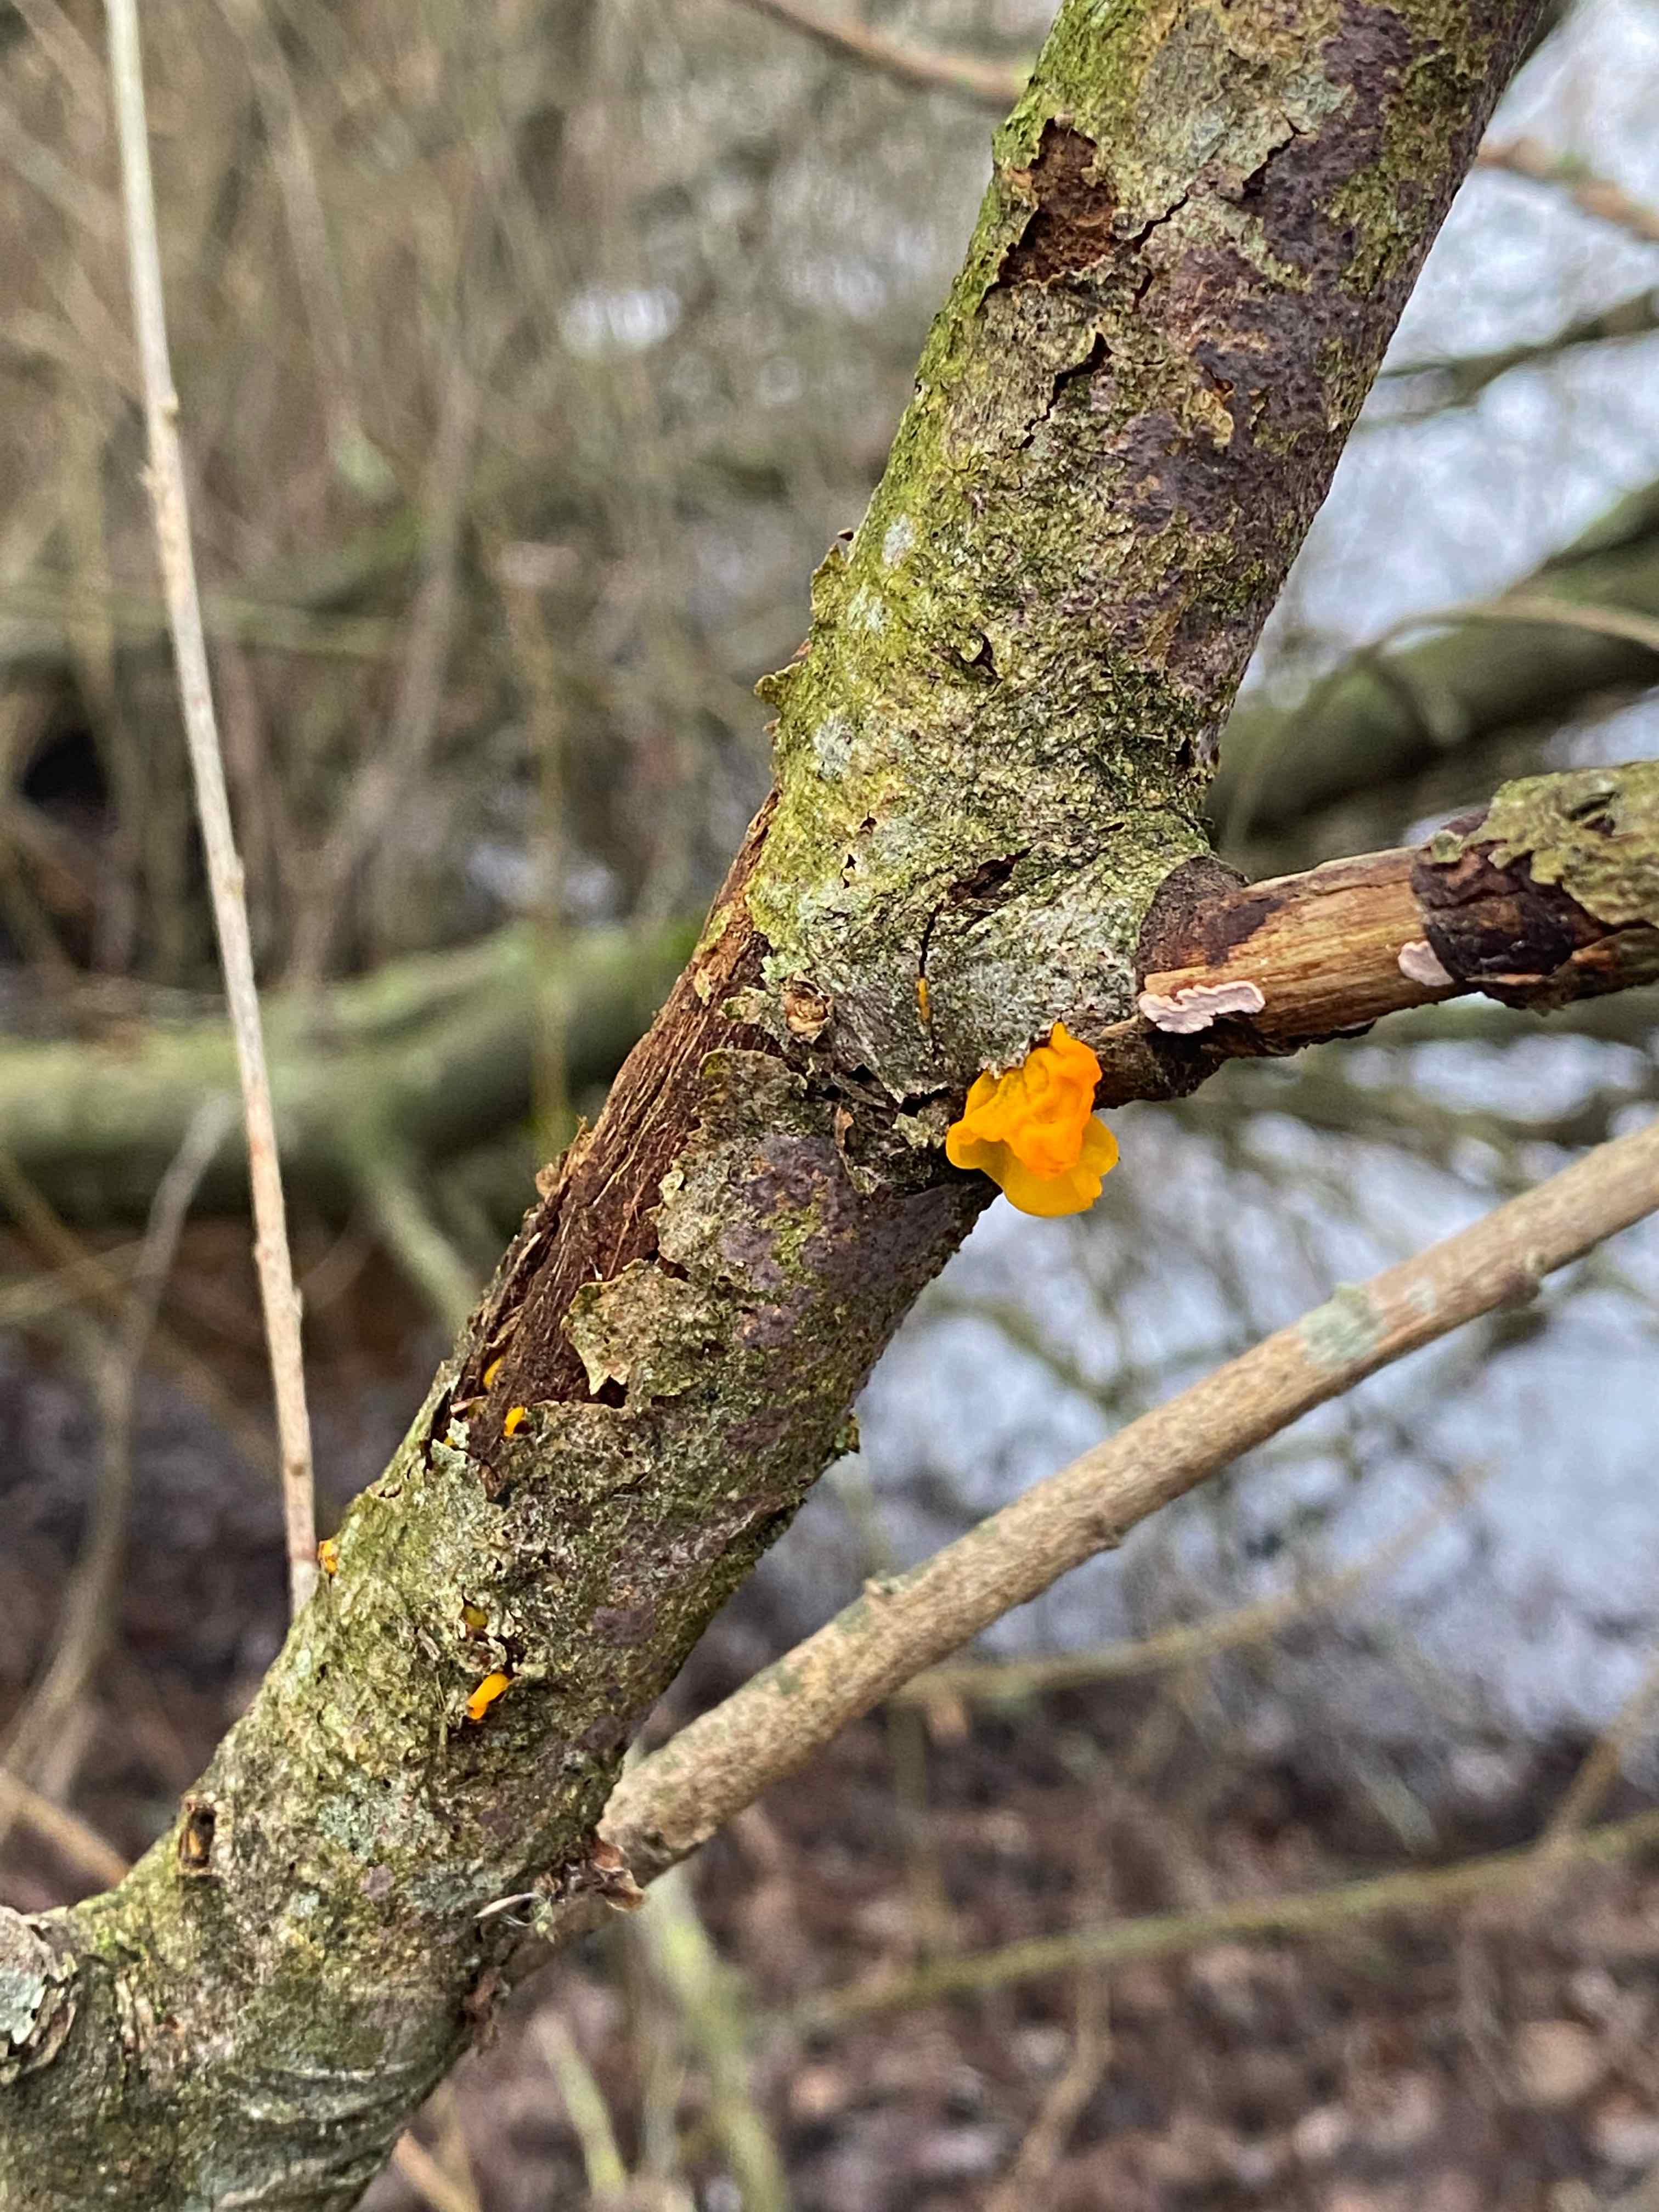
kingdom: Fungi
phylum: Basidiomycota
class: Tremellomycetes
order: Tremellales
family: Tremellaceae
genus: Tremella
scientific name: Tremella mesenterica
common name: gul bævresvamp
